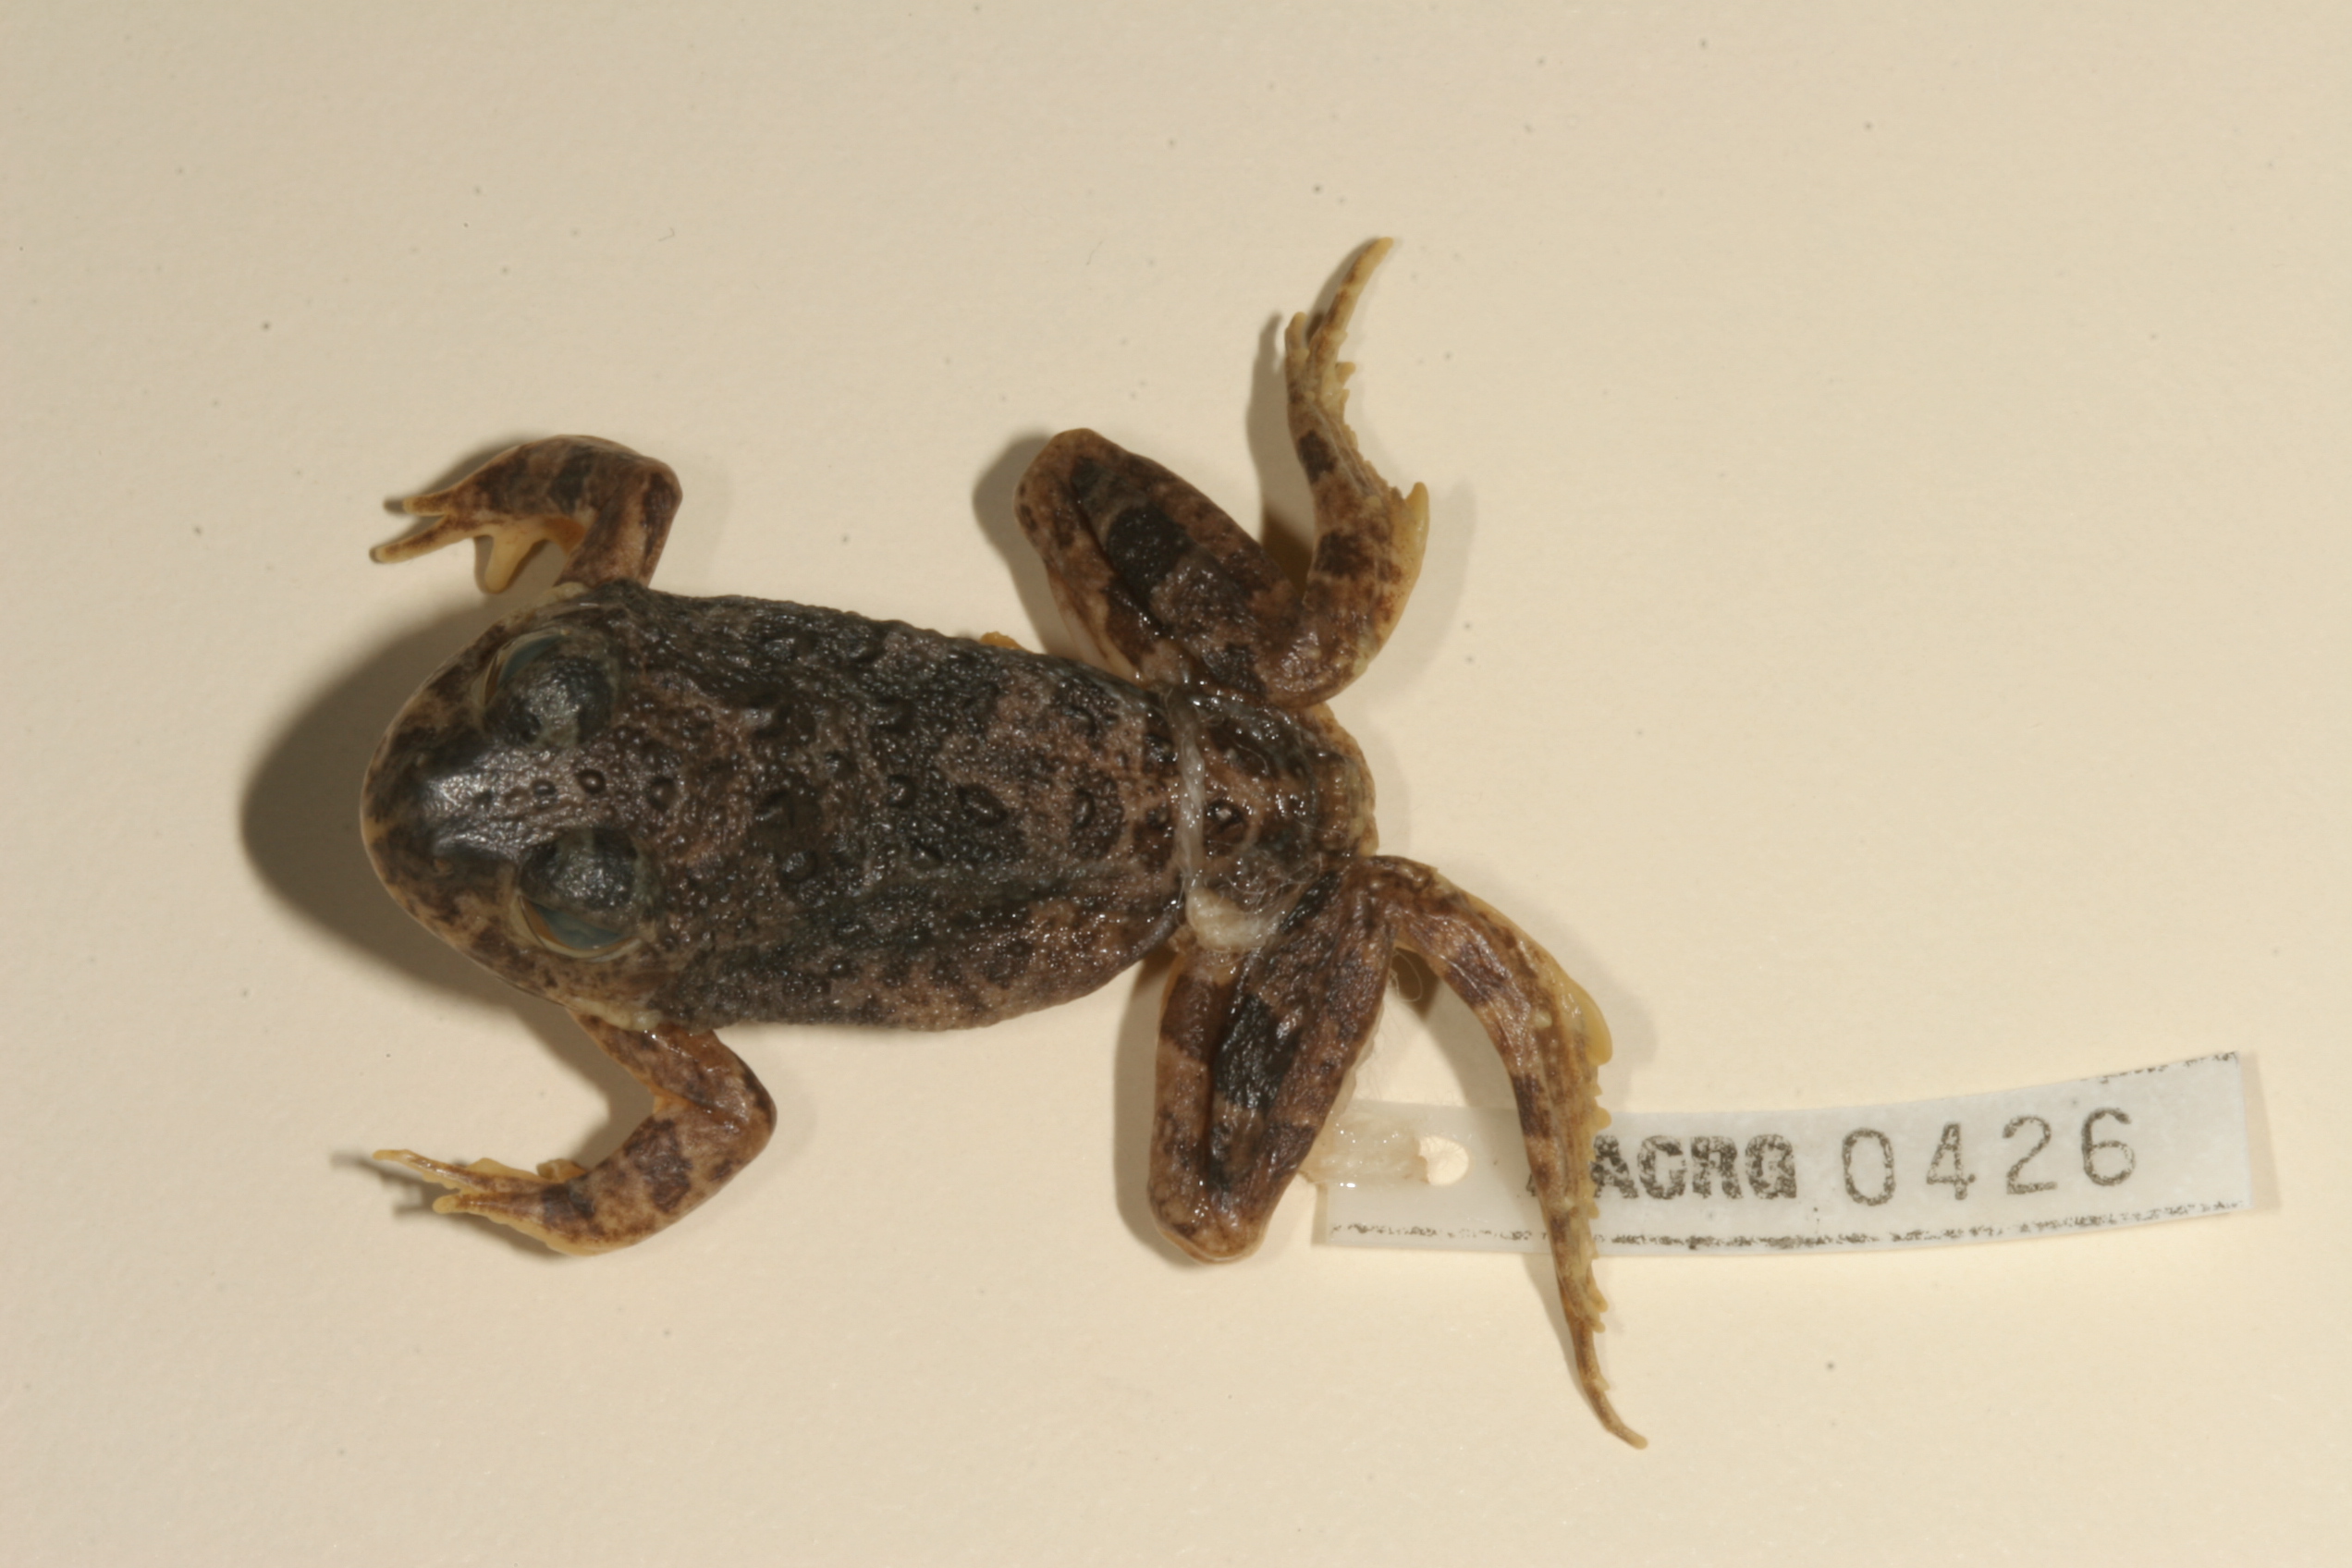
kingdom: Animalia
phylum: Chordata
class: Amphibia
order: Anura
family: Pyxicephalidae
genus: Tomopterna
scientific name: Tomopterna cryptotis
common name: Catequero bullfrog
